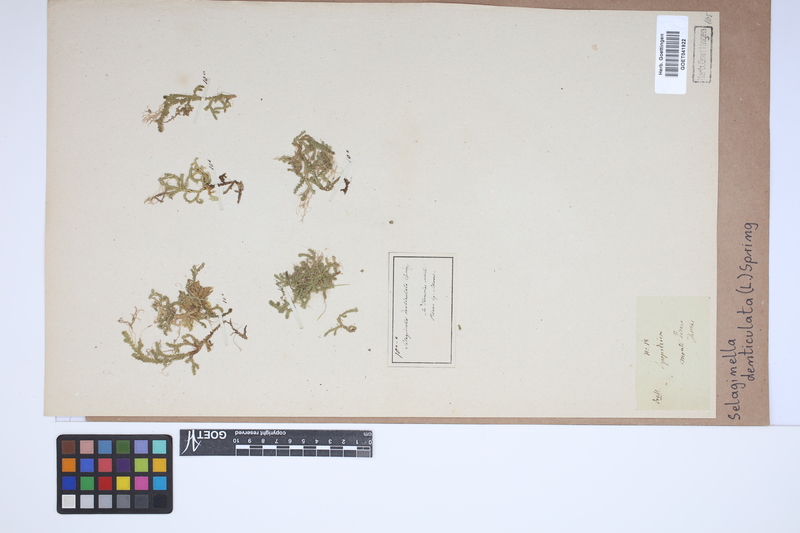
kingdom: Plantae
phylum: Tracheophyta
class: Lycopodiopsida
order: Selaginellales
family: Selaginellaceae
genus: Selaginella
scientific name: Selaginella denticulata
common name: Toothed-leaved clubmoss
